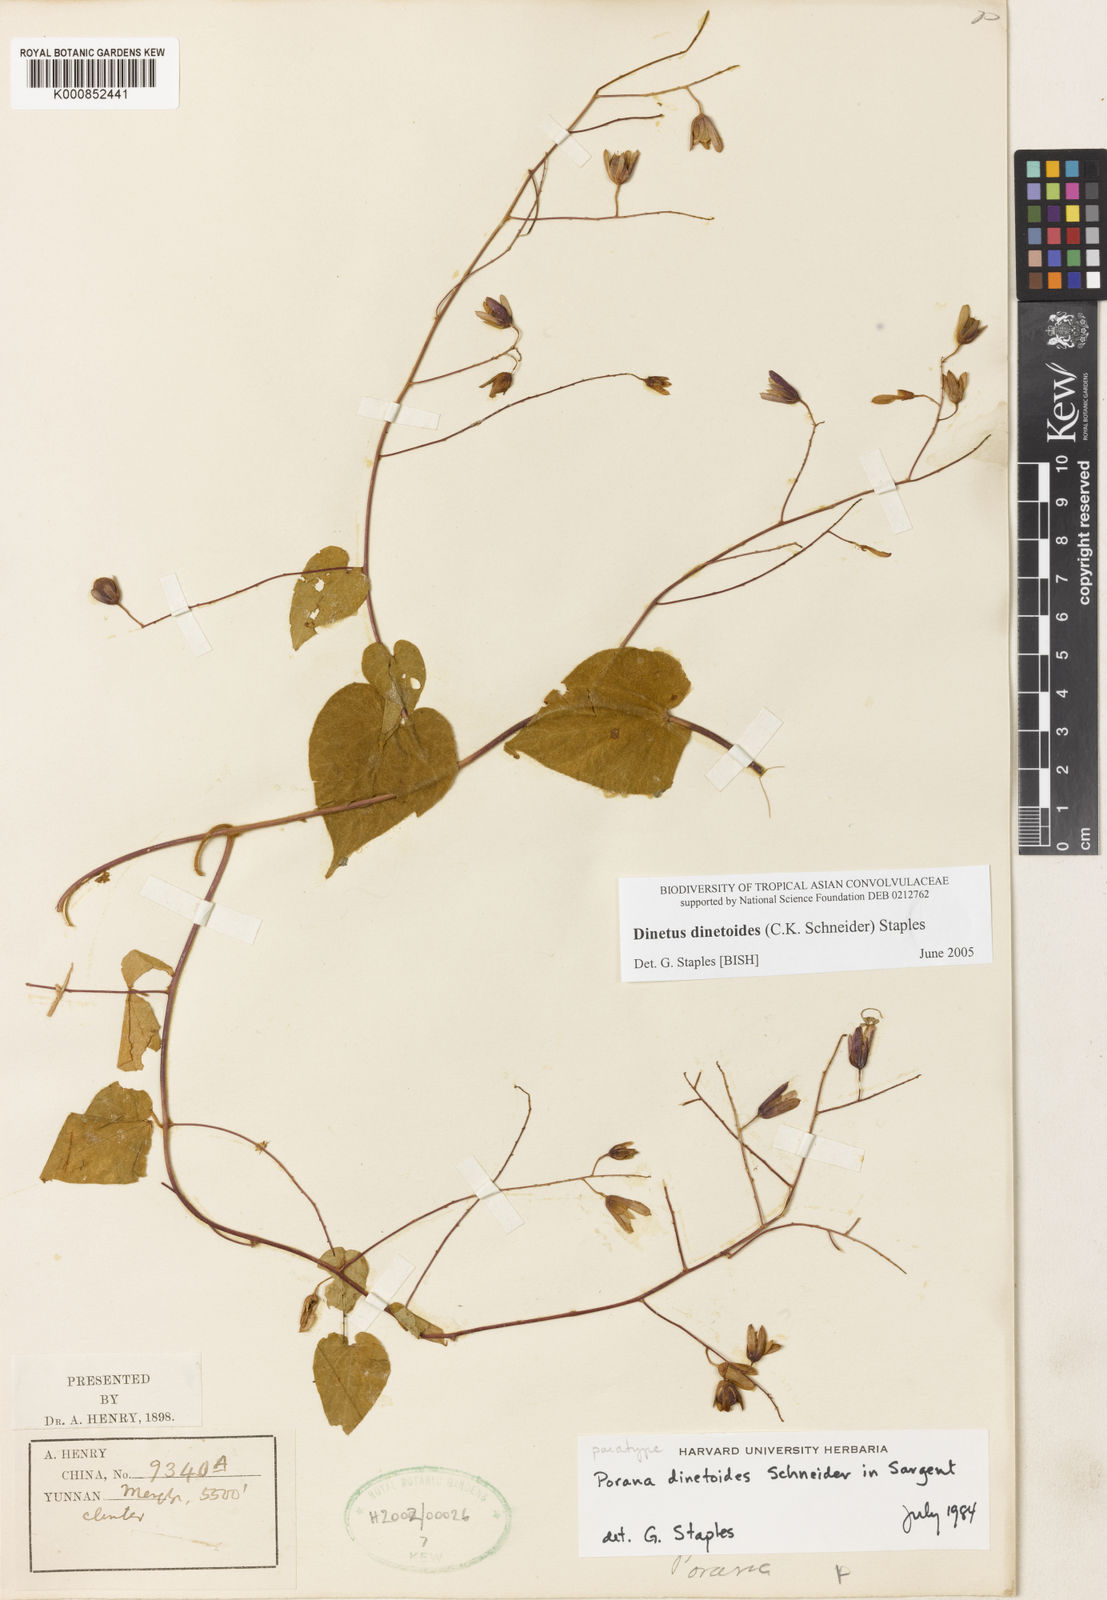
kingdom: Plantae
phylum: Tracheophyta
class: Magnoliopsida
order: Solanales
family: Convolvulaceae
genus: Dinetus
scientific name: Dinetus dinetoides
